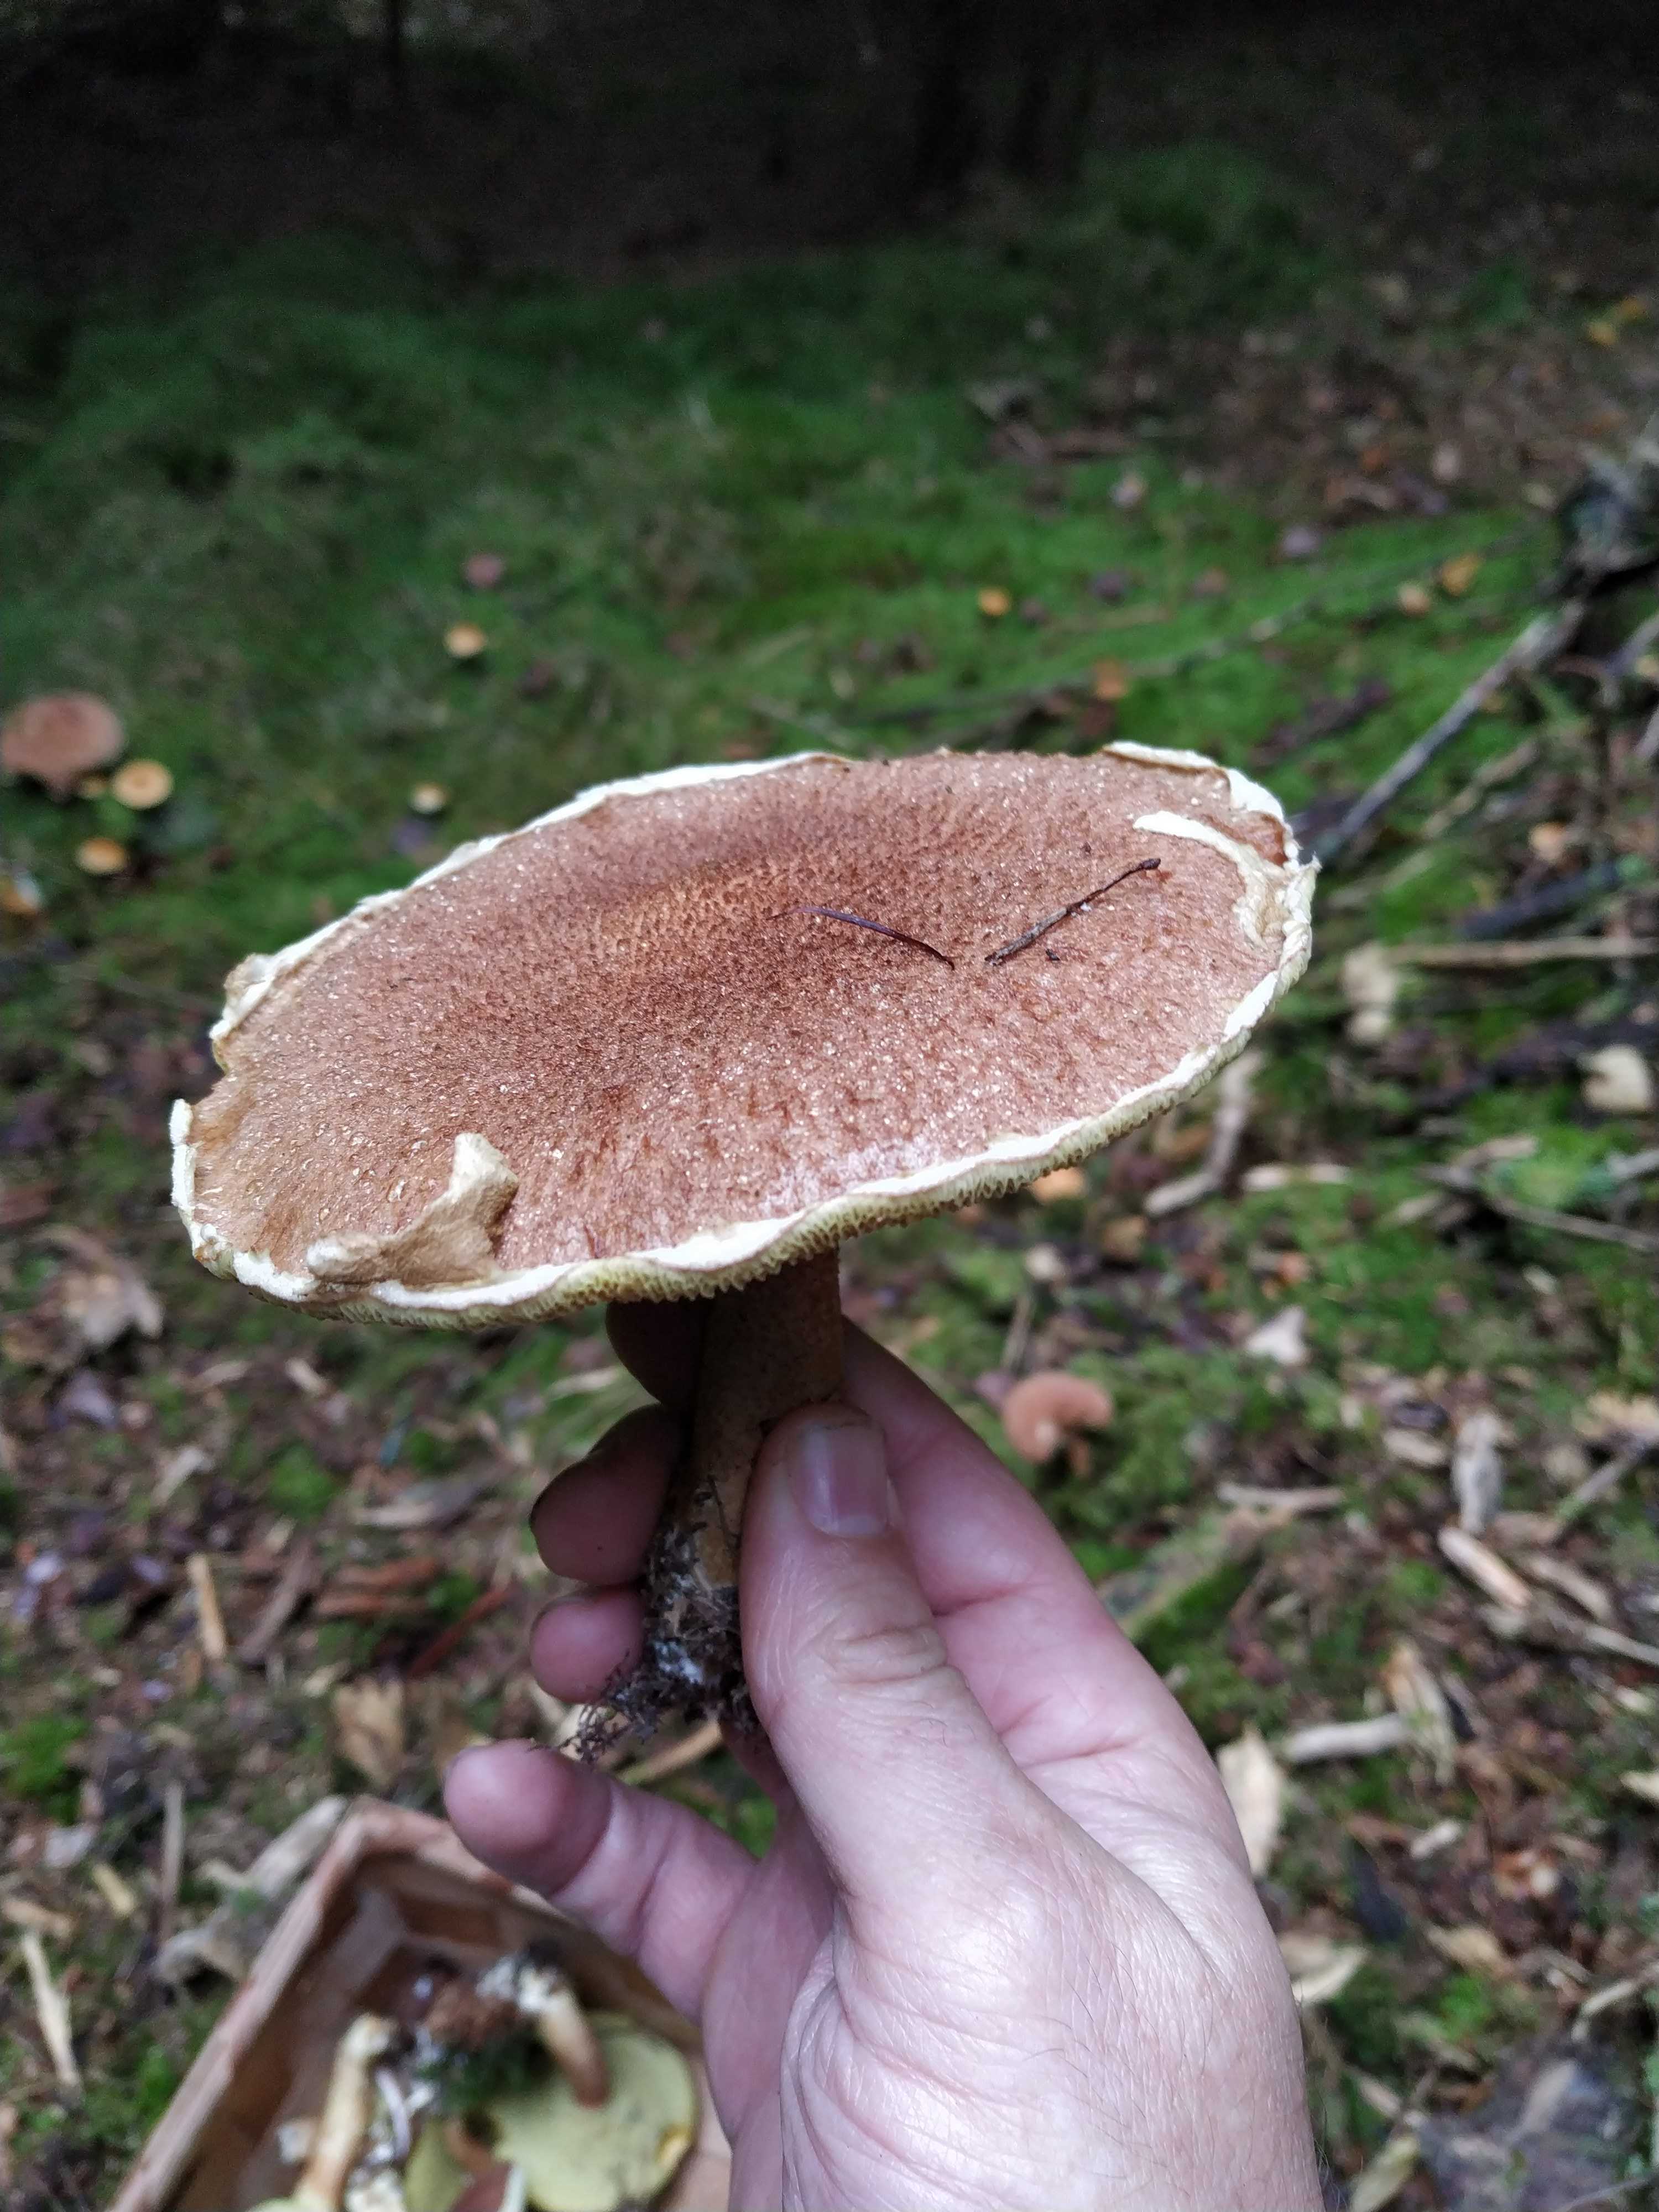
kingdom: Fungi
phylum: Basidiomycota
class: Agaricomycetes
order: Boletales
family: Suillaceae
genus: Suillus
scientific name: Suillus cavipes
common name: hulstokket slimrørhat
